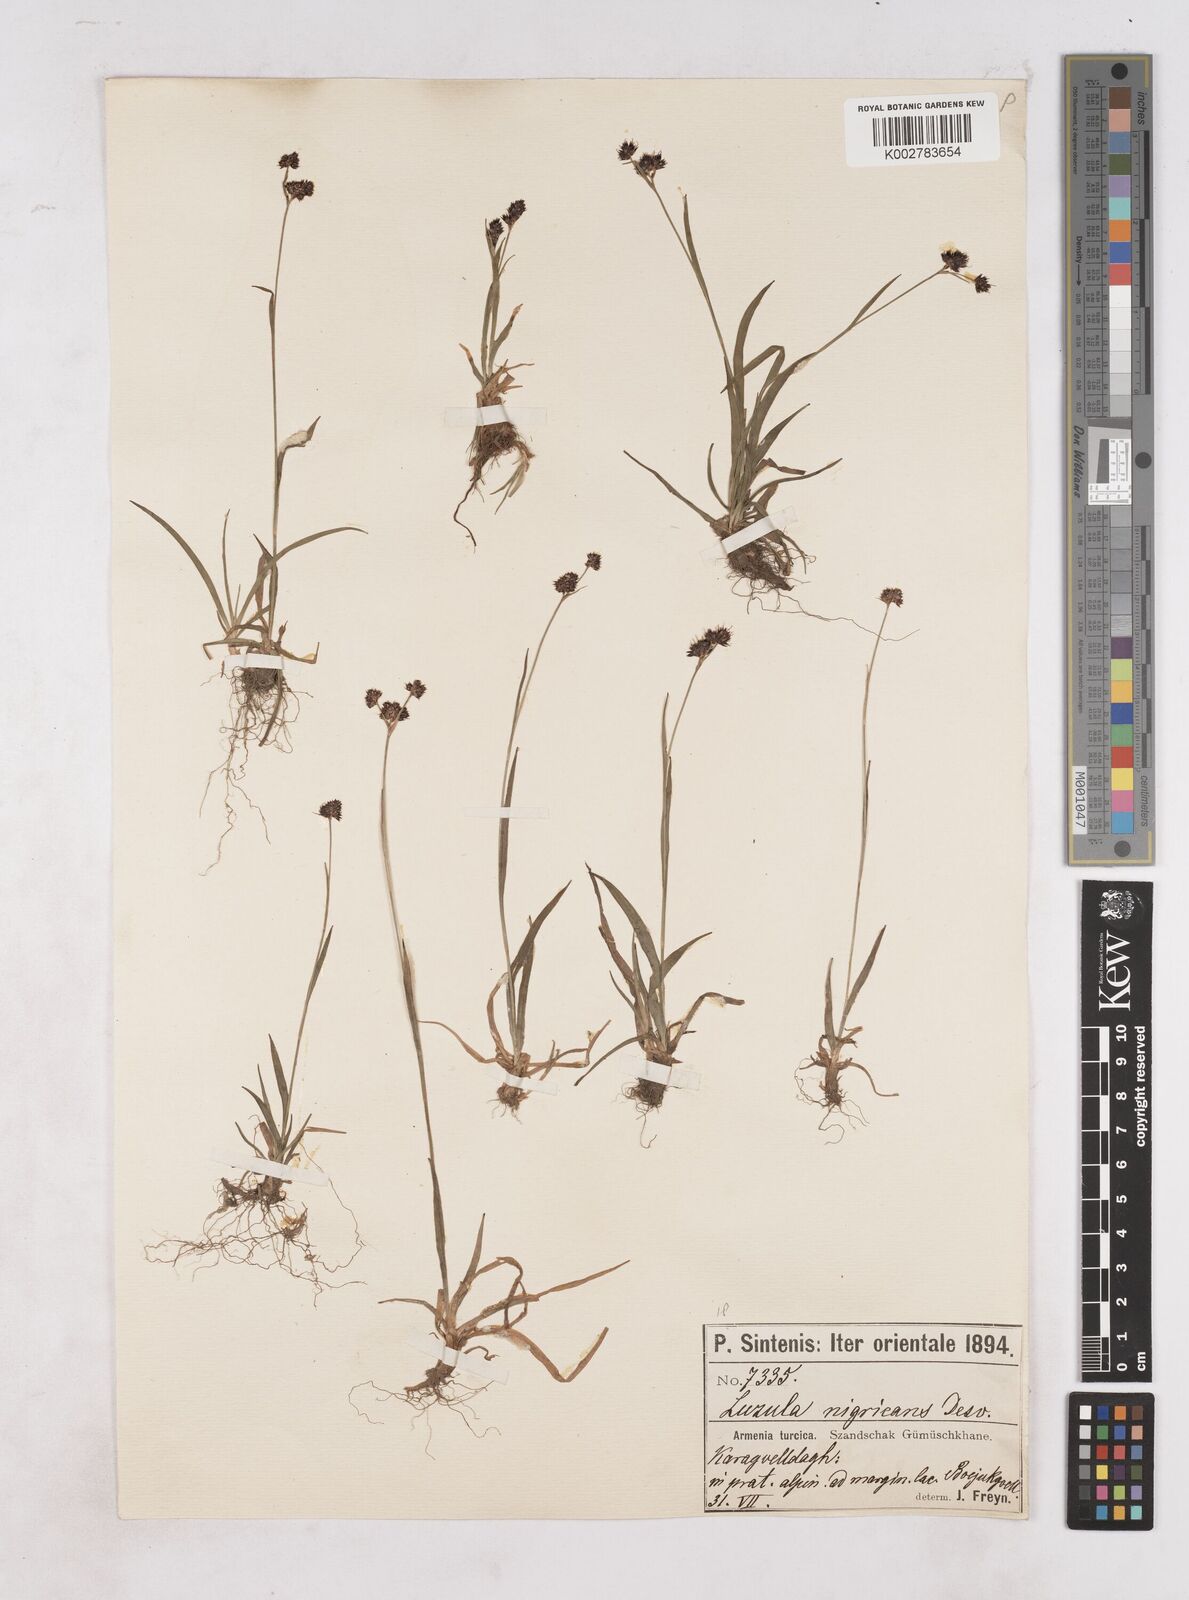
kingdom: Plantae
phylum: Tracheophyta
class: Liliopsida
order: Poales
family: Juncaceae
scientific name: Juncaceae
